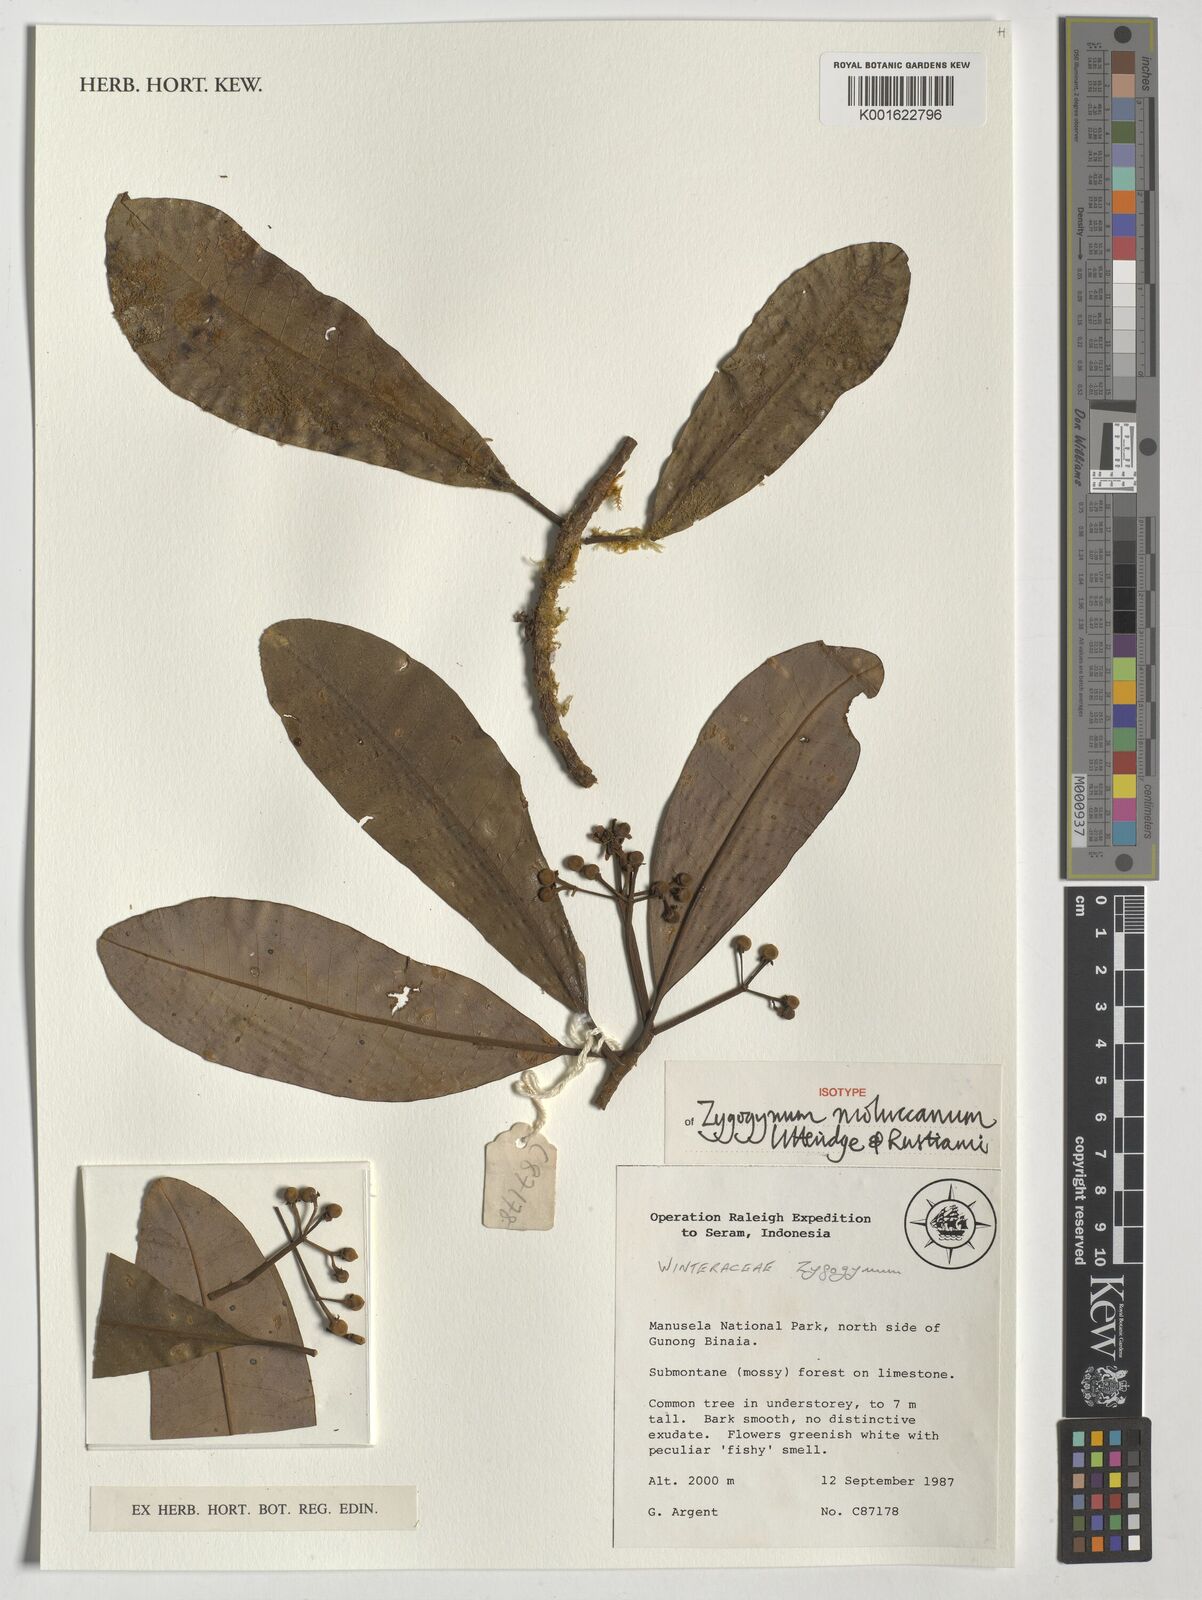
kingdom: Plantae
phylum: Tracheophyta
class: Magnoliopsida
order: Canellales
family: Winteraceae
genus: Zygogynum
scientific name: Zygogynum
